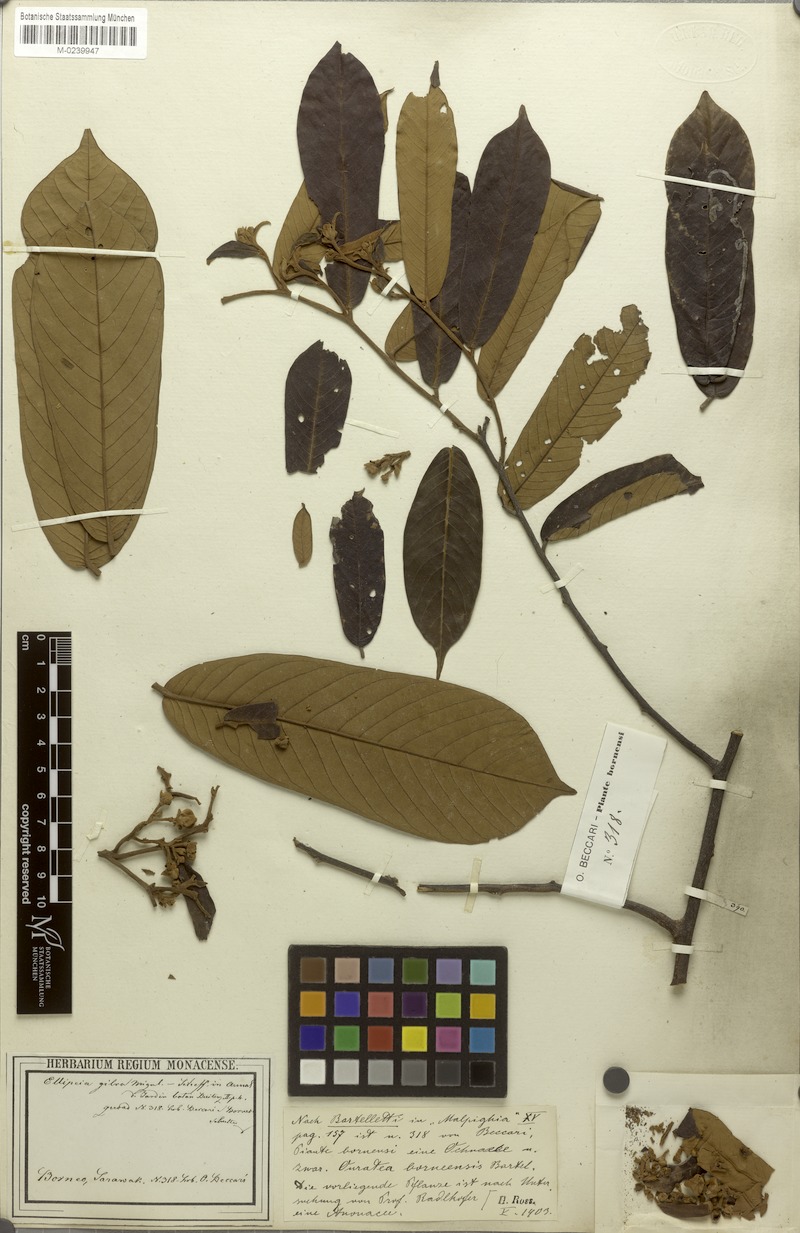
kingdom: Plantae
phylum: Tracheophyta
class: Magnoliopsida
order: Magnoliales
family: Annonaceae
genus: Uvaria
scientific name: Uvaria cuneifolia
